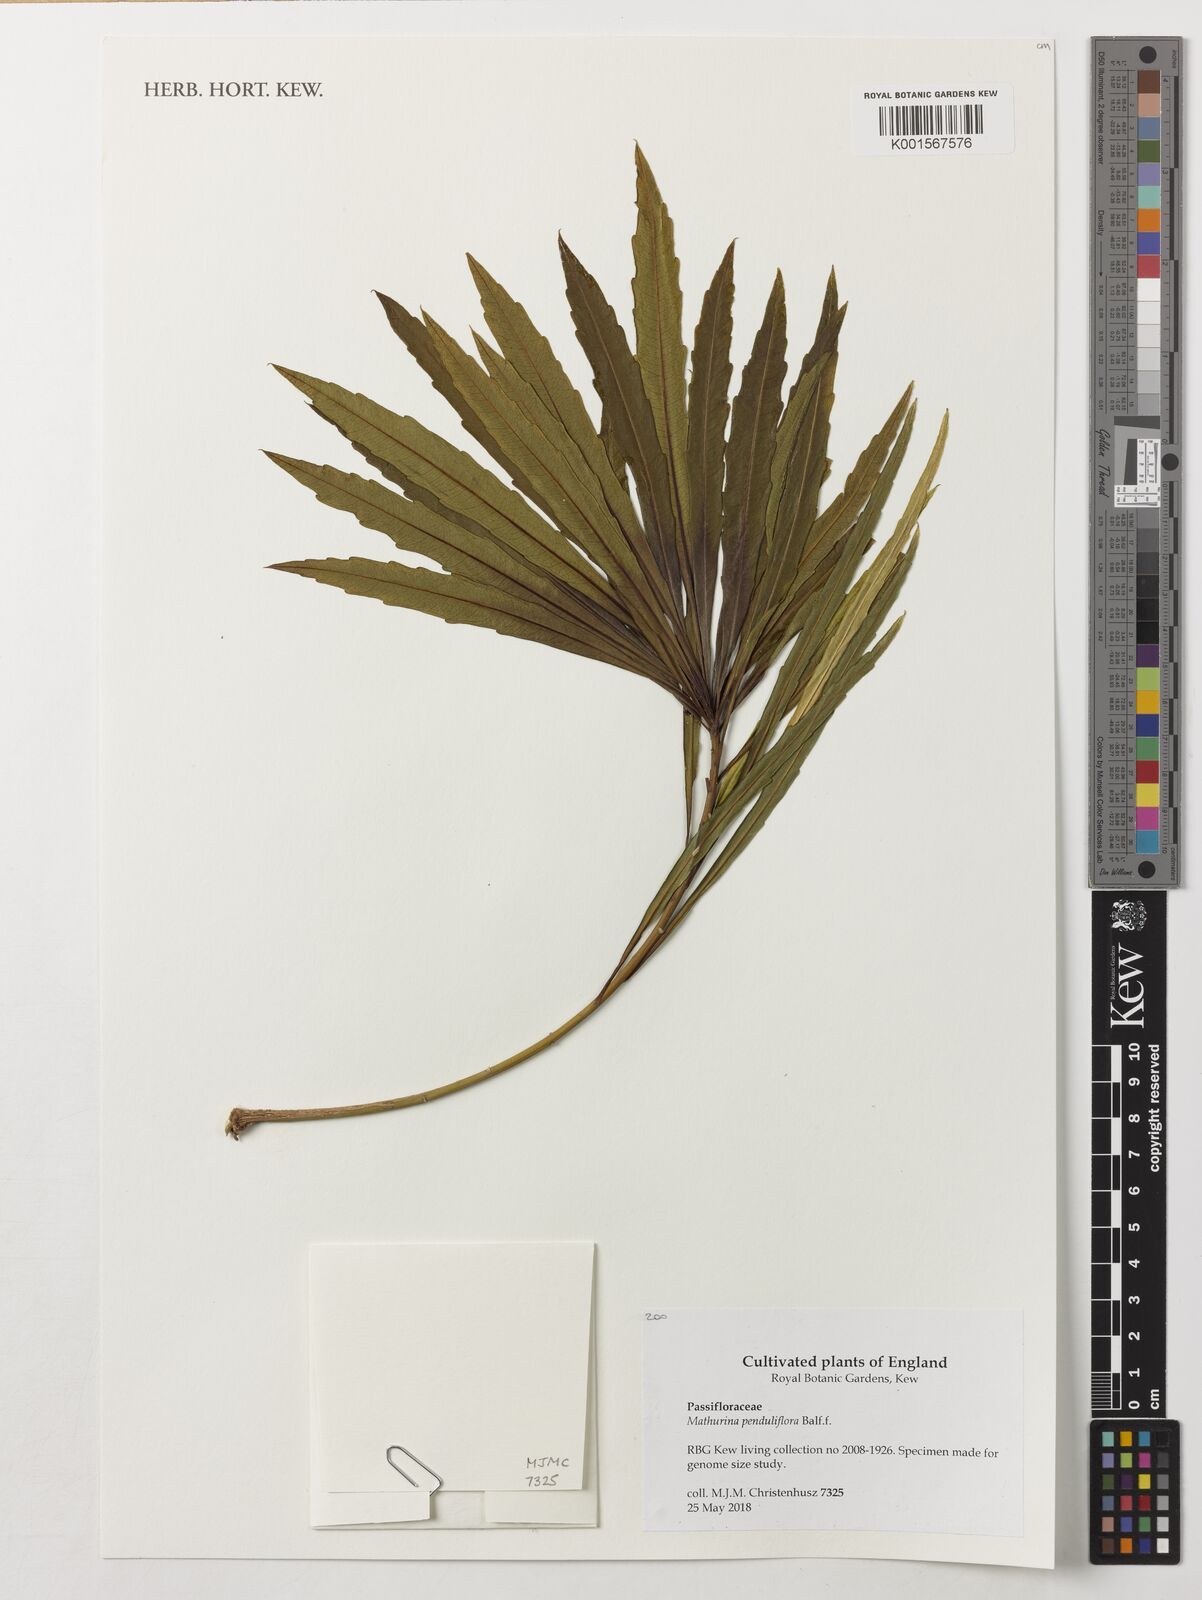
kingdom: Plantae
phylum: Tracheophyta
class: Magnoliopsida
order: Malpighiales
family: Turneraceae
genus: Mathurina
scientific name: Mathurina penduliflora
